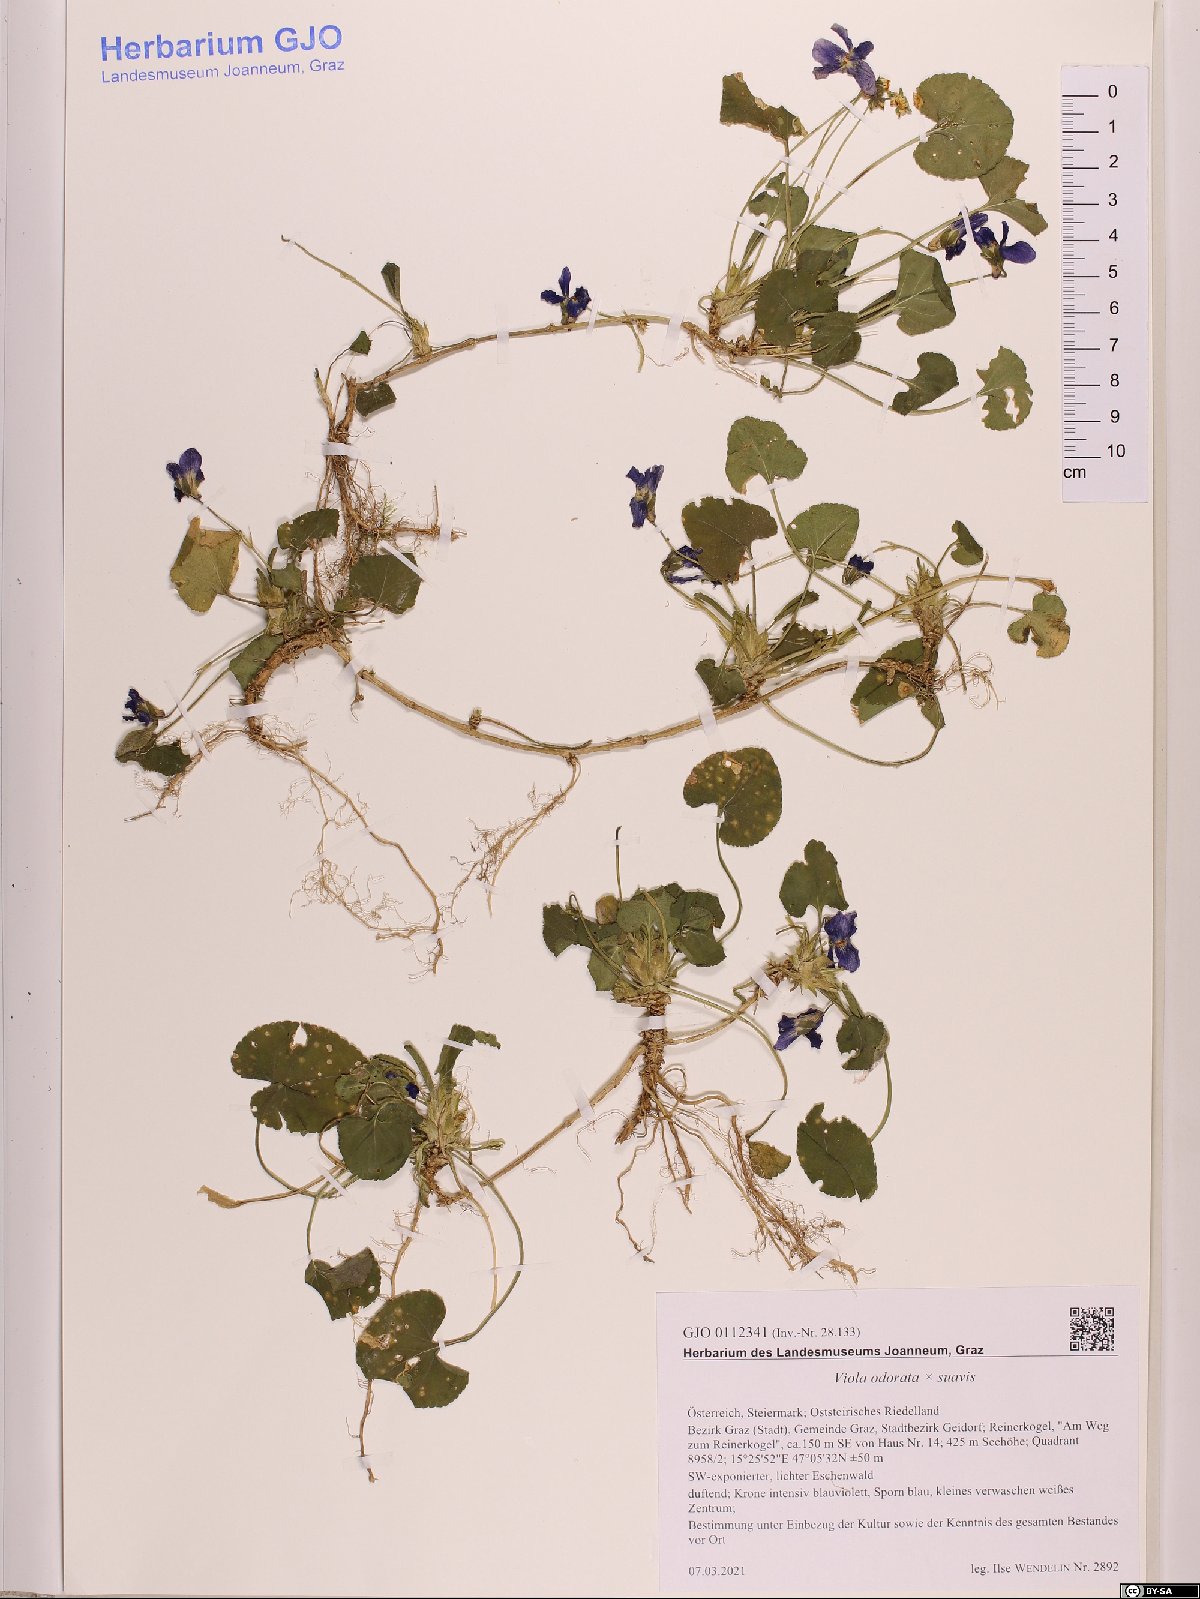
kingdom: Plantae
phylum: Tracheophyta
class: Magnoliopsida
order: Malpighiales
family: Violaceae
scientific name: Violaceae
